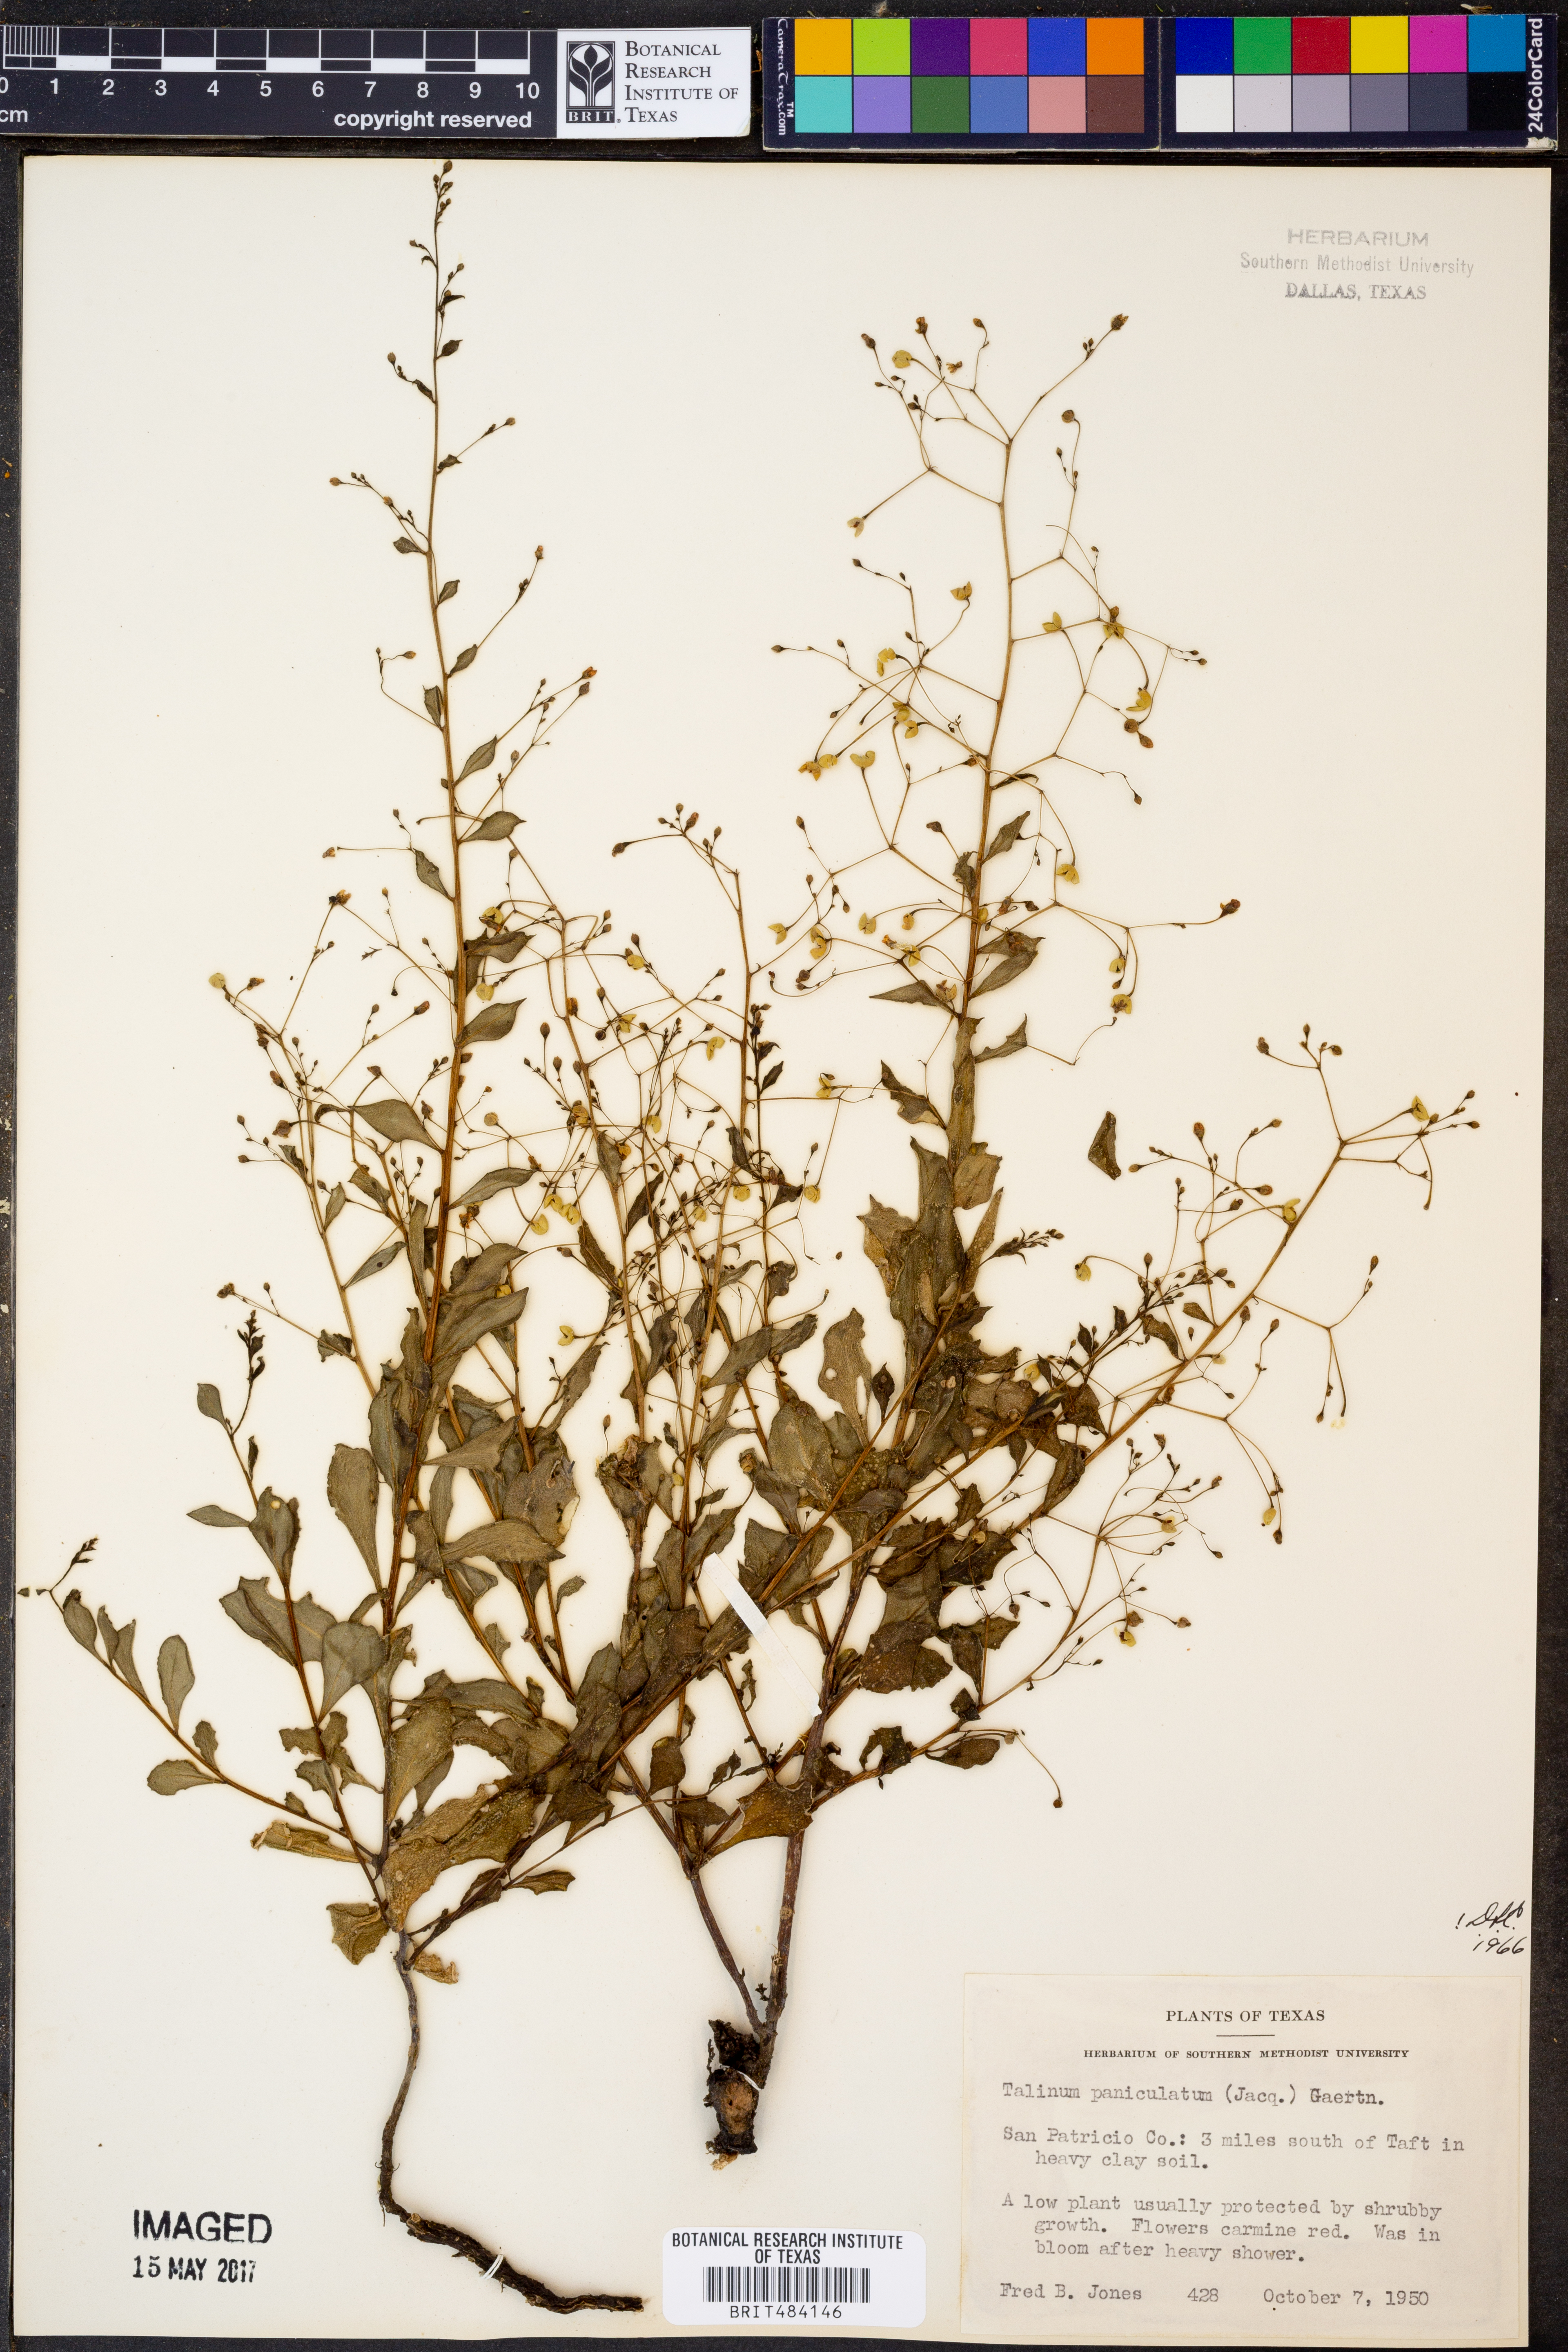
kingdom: Plantae
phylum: Tracheophyta
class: Magnoliopsida
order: Caryophyllales
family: Talinaceae
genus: Talinum
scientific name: Talinum paniculatum
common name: Jewels of opar
